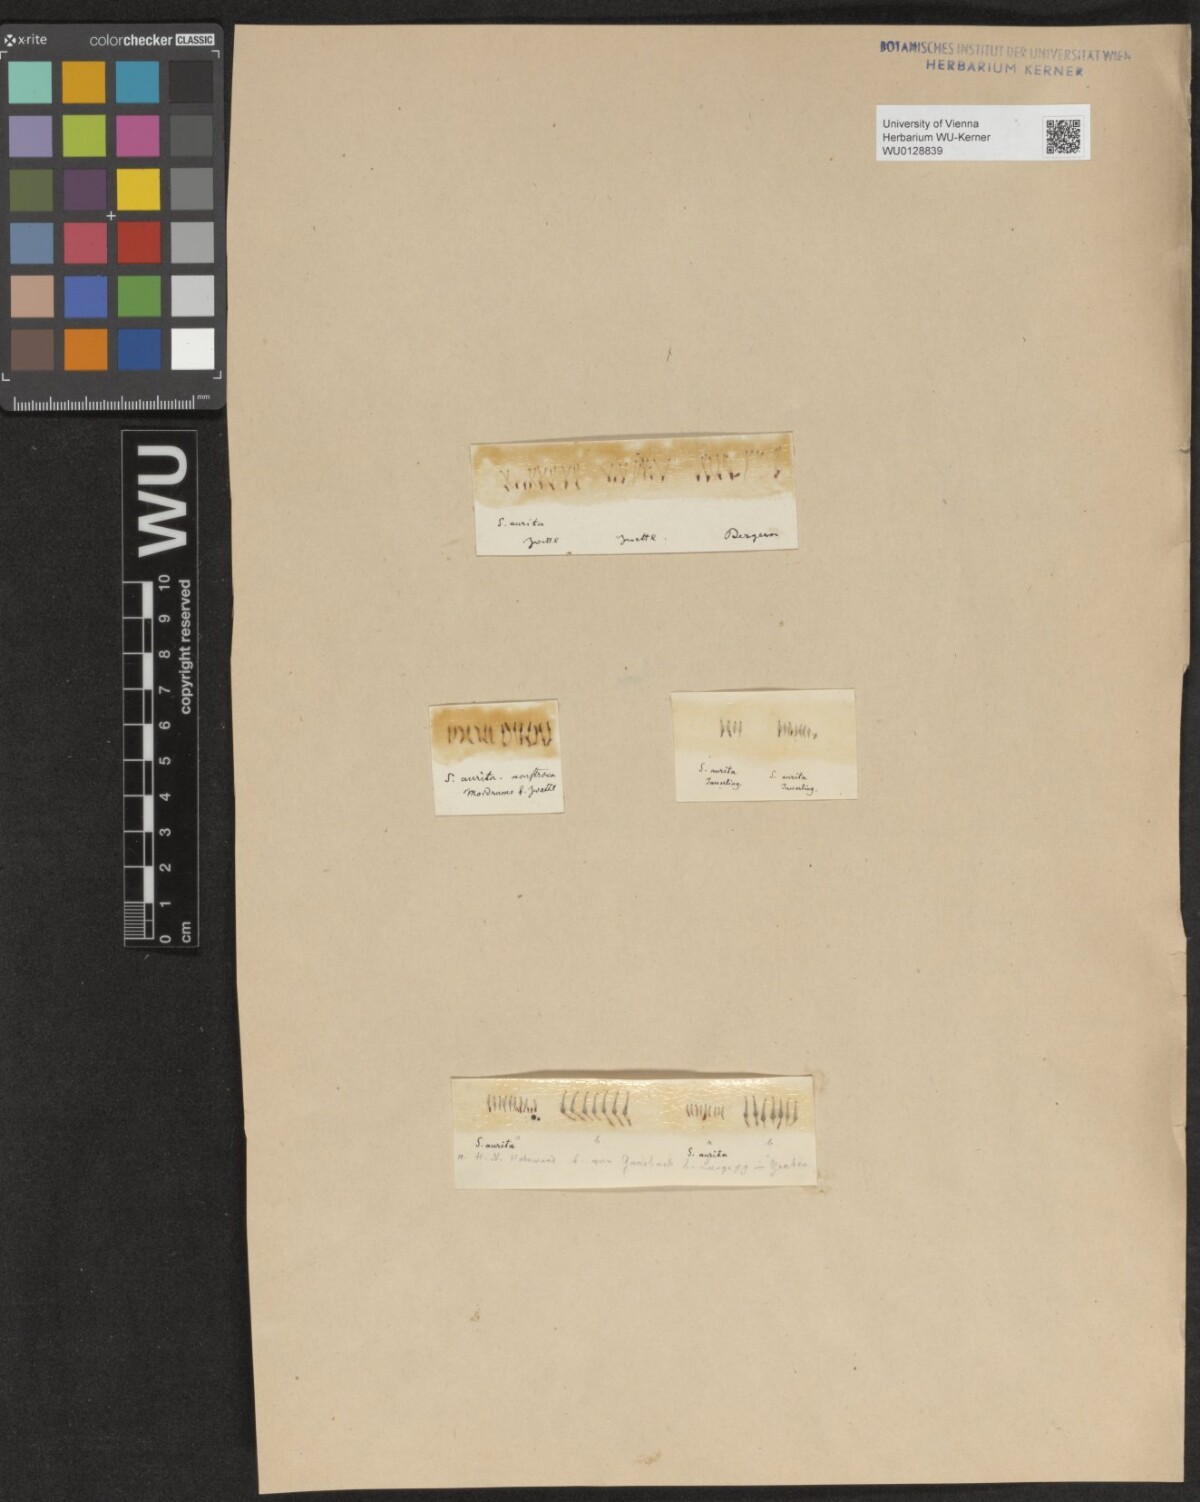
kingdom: Plantae
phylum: Tracheophyta
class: Magnoliopsida
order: Malpighiales
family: Salicaceae
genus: Salix
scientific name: Salix aurita
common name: Eared willow
